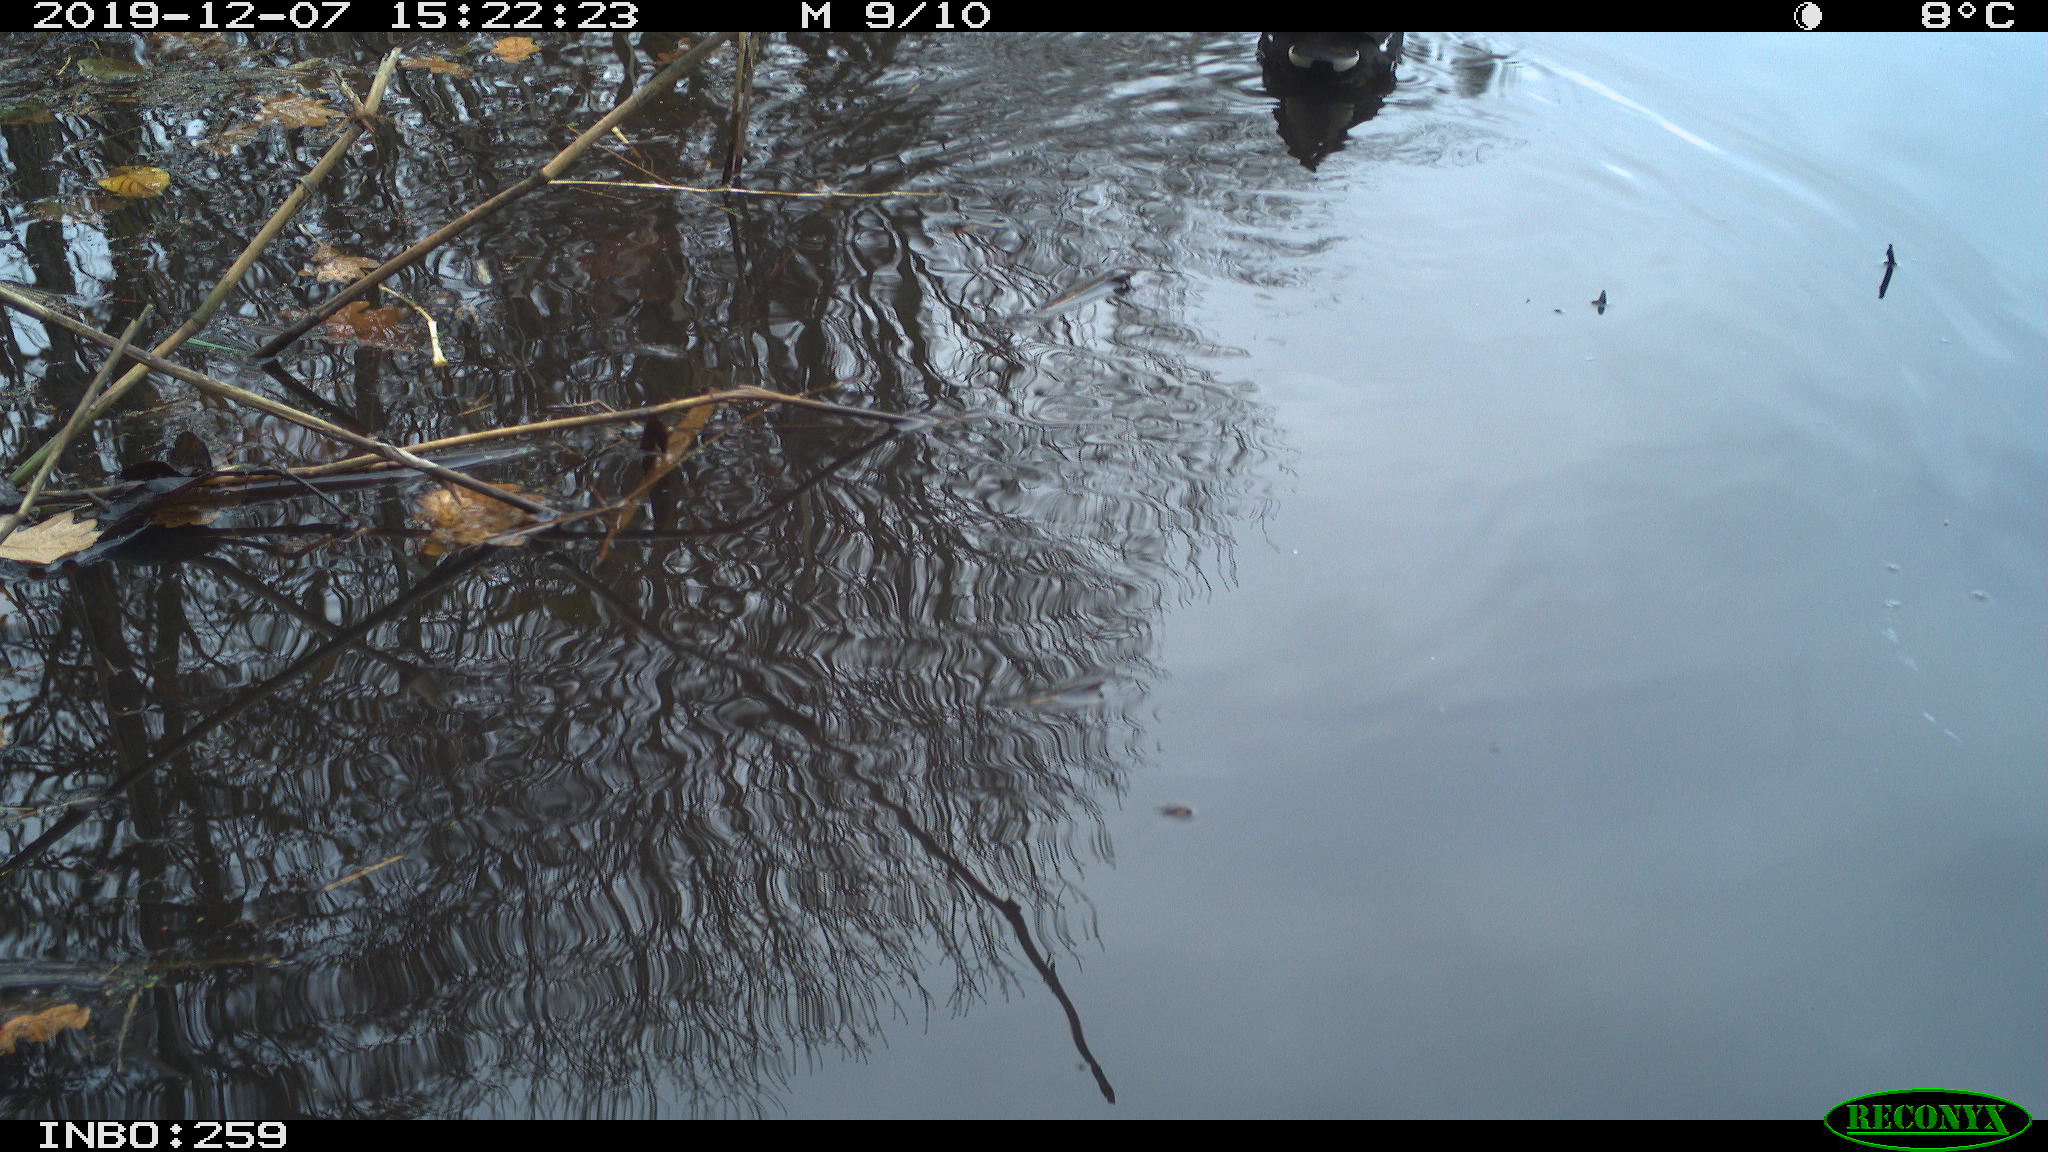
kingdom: Animalia
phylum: Chordata
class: Aves
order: Gruiformes
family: Rallidae
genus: Gallinula
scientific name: Gallinula chloropus
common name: Common moorhen
